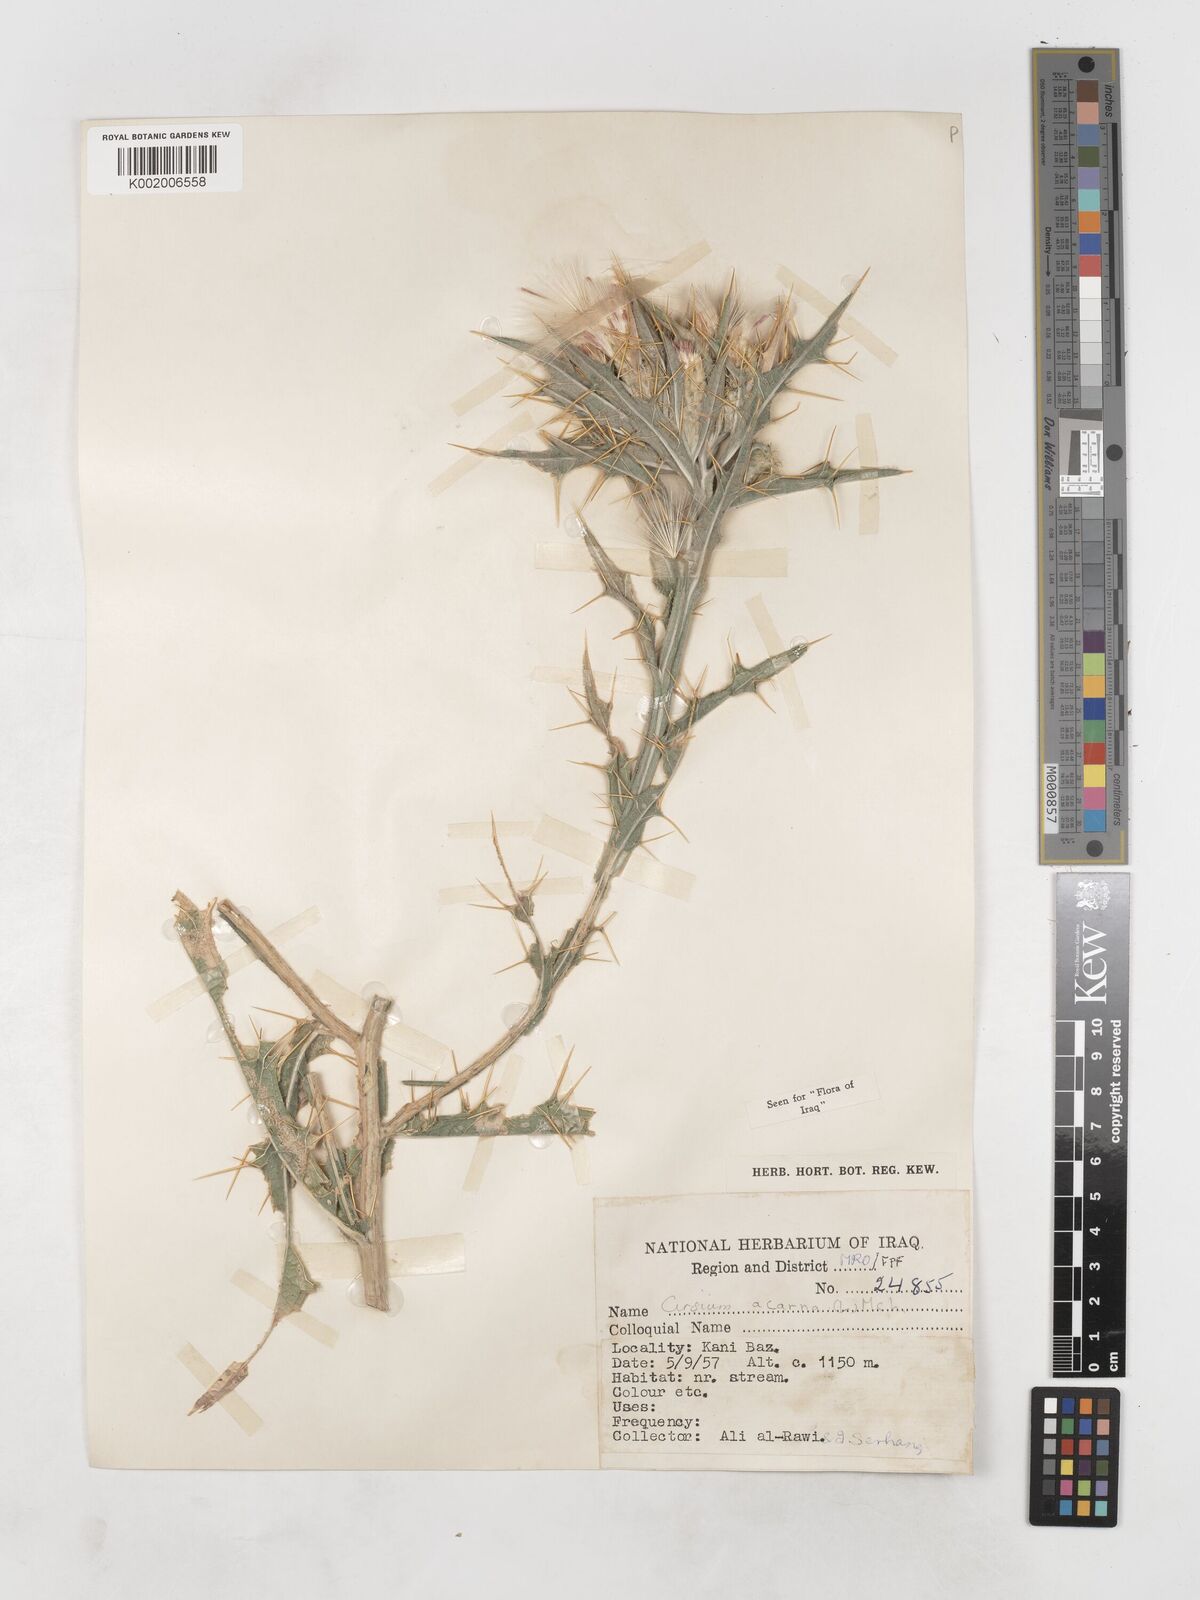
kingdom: Plantae
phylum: Tracheophyta
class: Magnoliopsida
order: Asterales
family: Asteraceae
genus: Picnomon
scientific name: Picnomon acarna
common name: Soldier thistle
